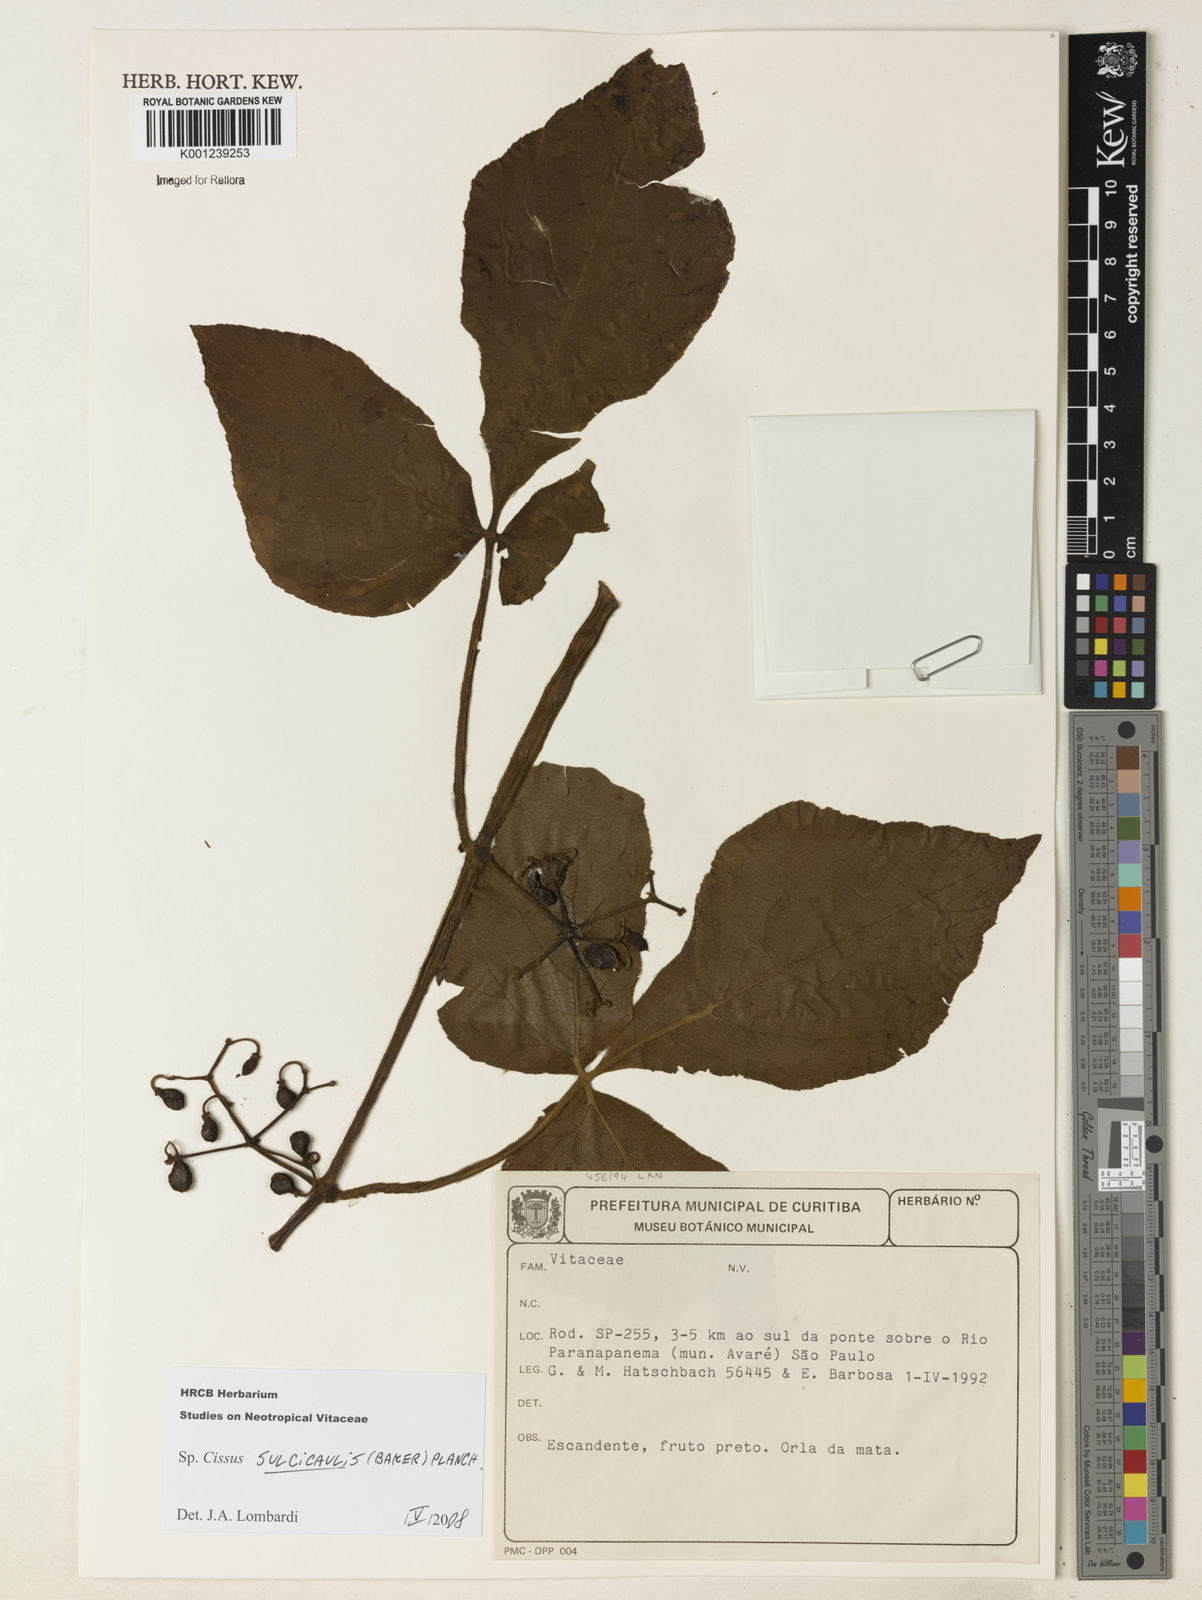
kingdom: Plantae
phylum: Tracheophyta
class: Magnoliopsida
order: Vitales
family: Vitaceae
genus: Cissus
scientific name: Cissus sulcicaulis
